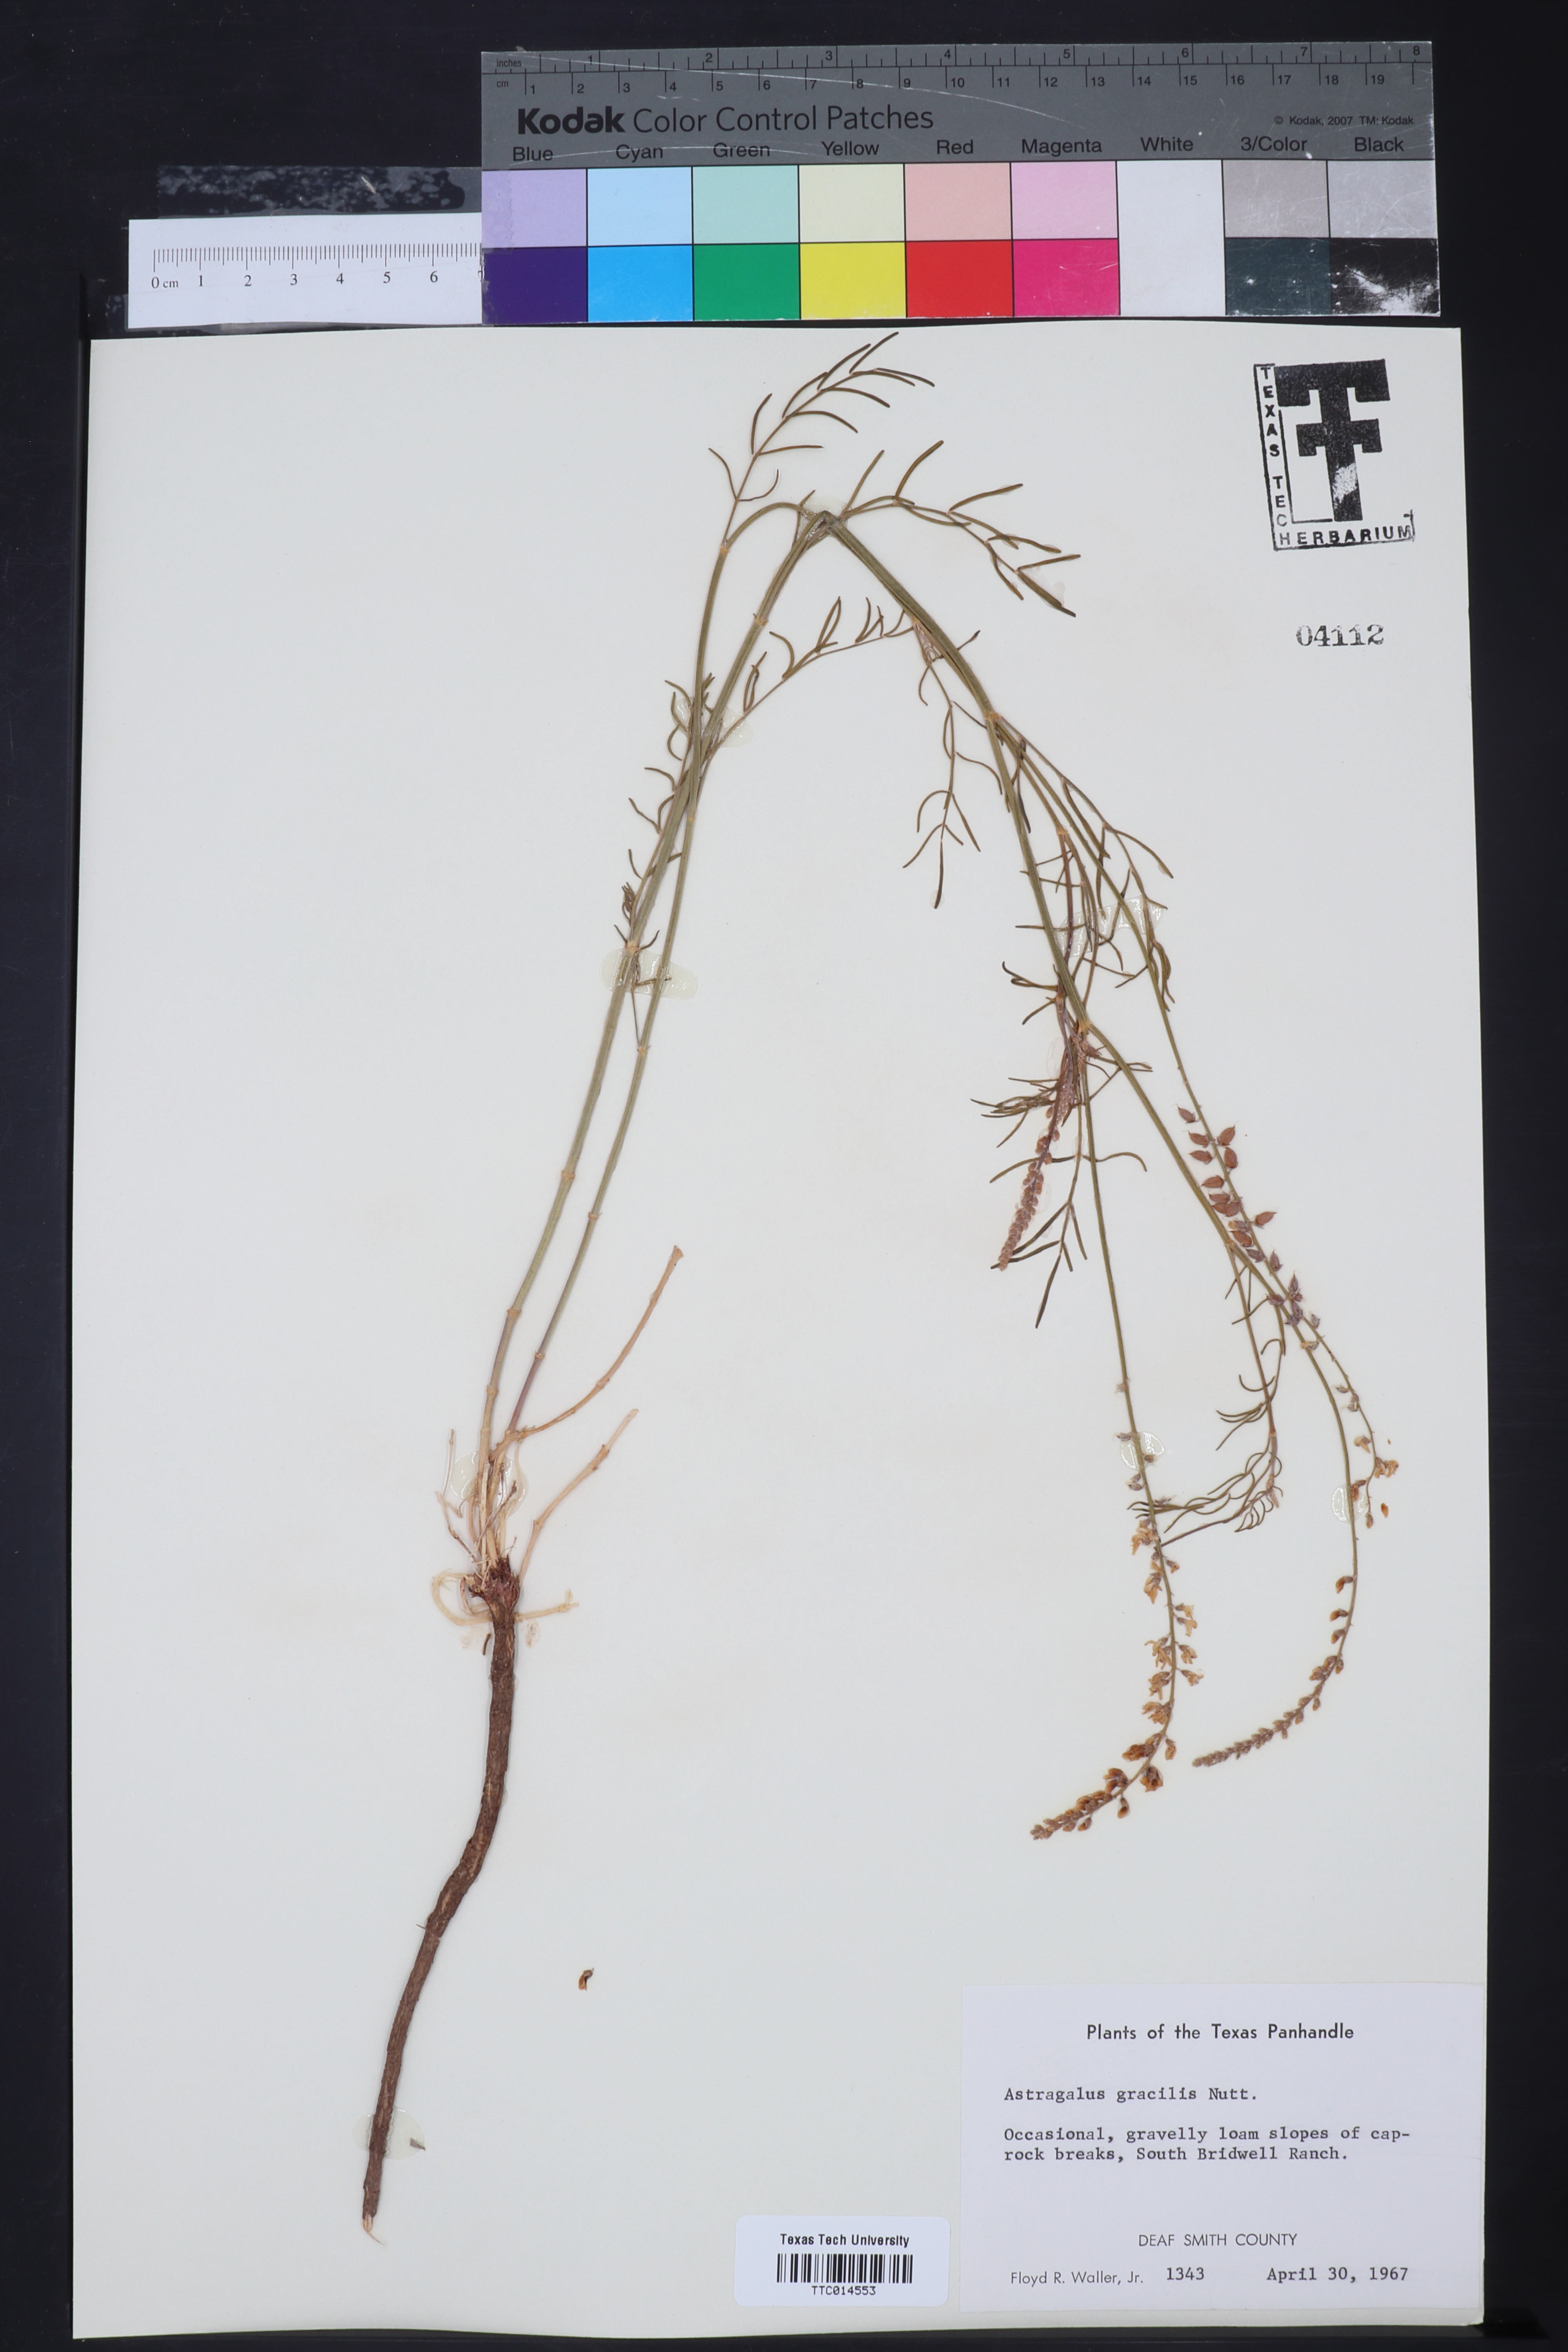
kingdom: Plantae
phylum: Tracheophyta
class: Magnoliopsida
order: Fabales
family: Fabaceae
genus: Astragalus
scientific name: Astragalus gracilis
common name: Slender milk-vetch
